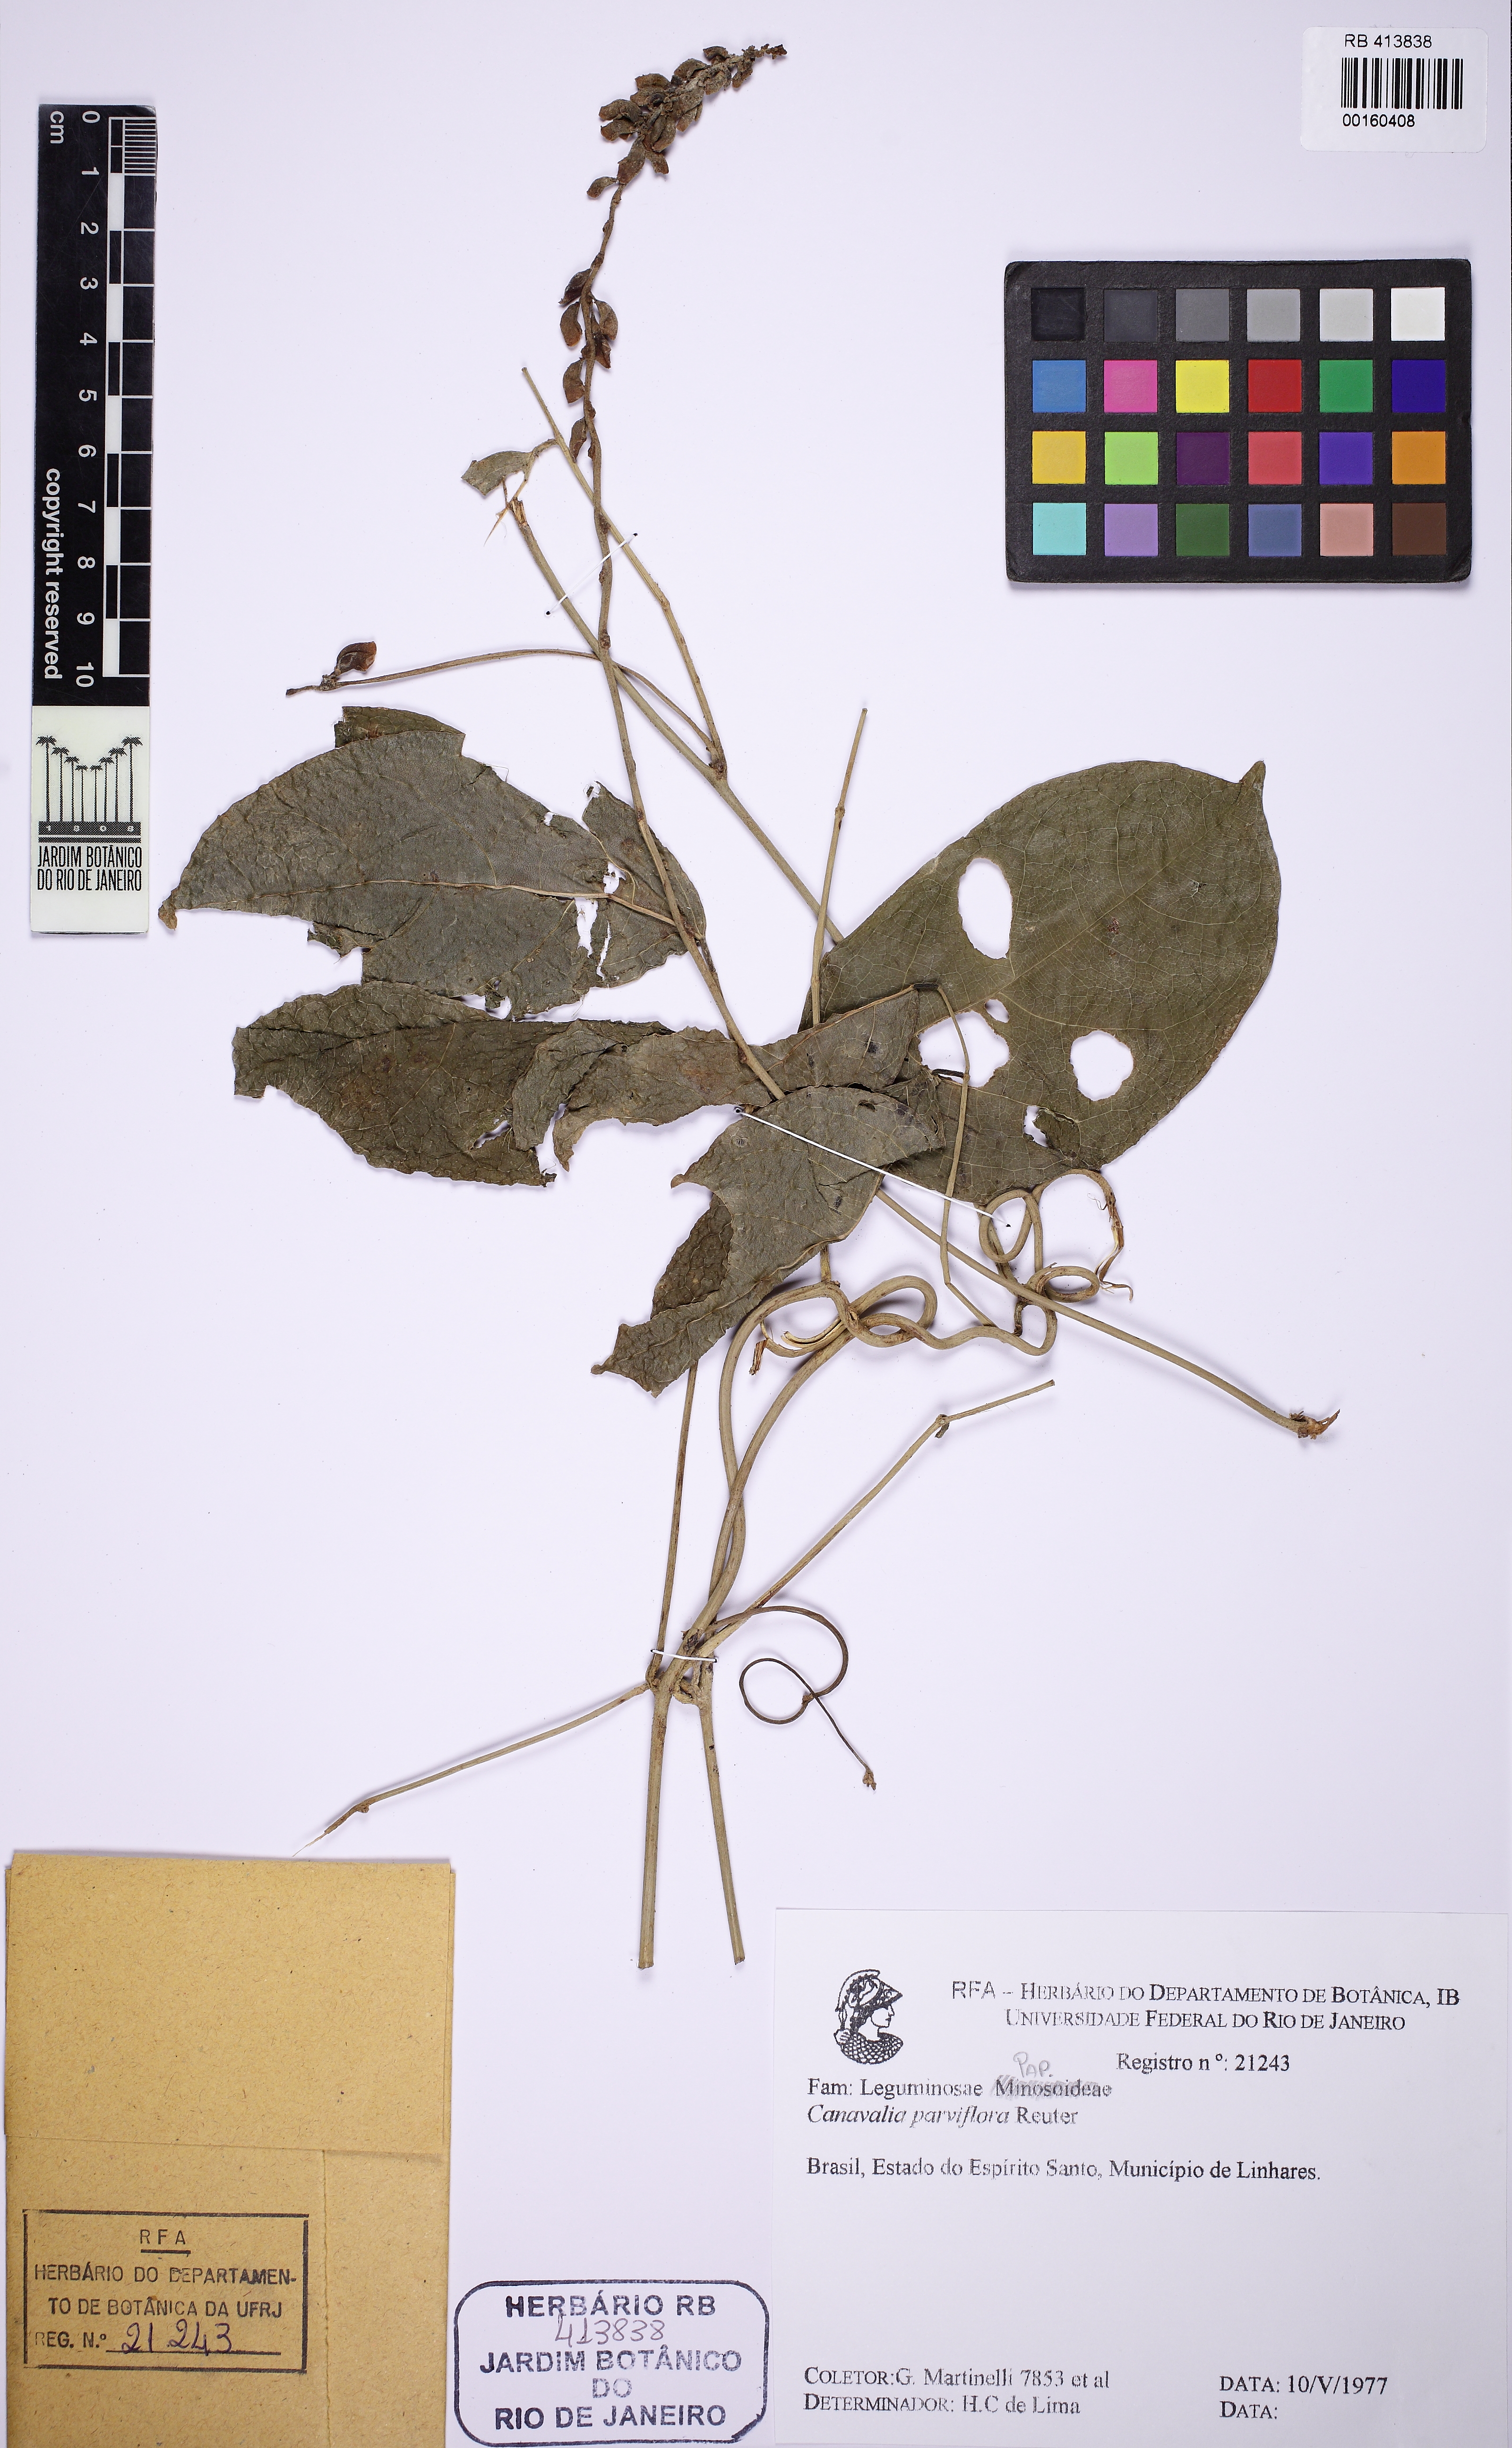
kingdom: Plantae
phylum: Tracheophyta
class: Magnoliopsida
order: Fabales
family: Fabaceae
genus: Canavalia
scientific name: Canavalia parviflora
